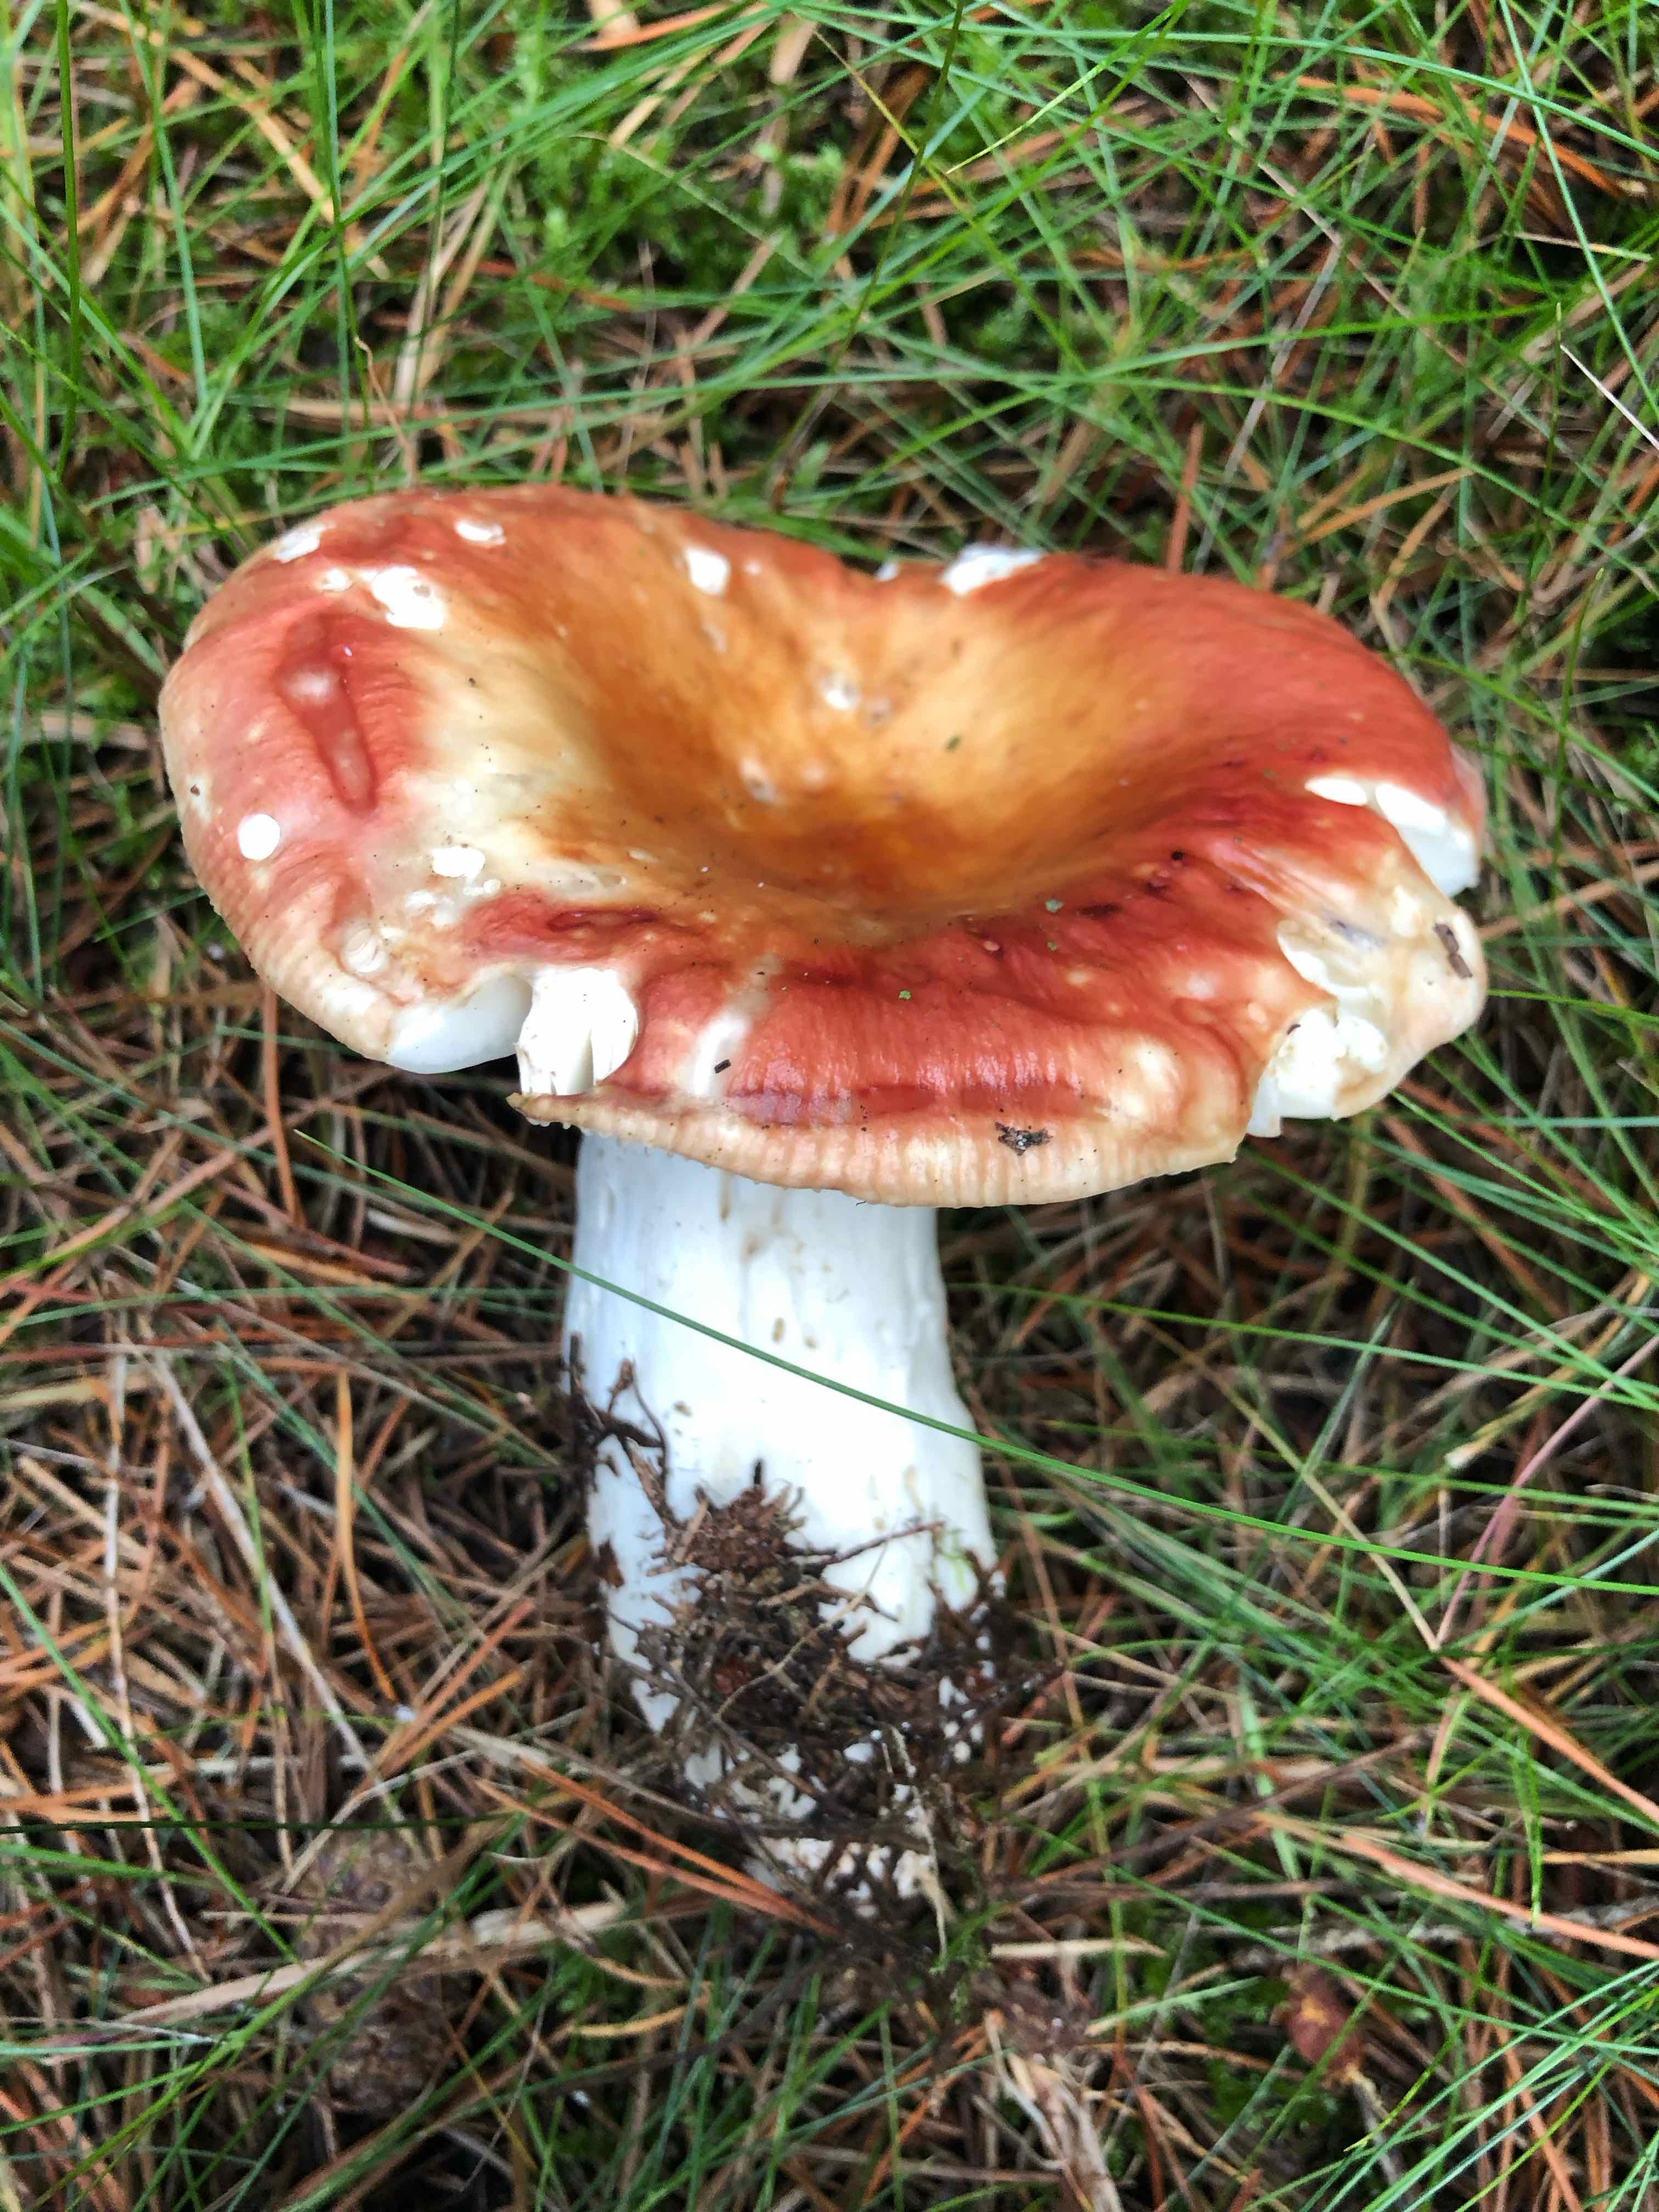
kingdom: Fungi
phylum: Basidiomycota
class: Agaricomycetes
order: Russulales
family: Russulaceae
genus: Russula
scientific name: Russula paludosa
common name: prægtig skørhat
